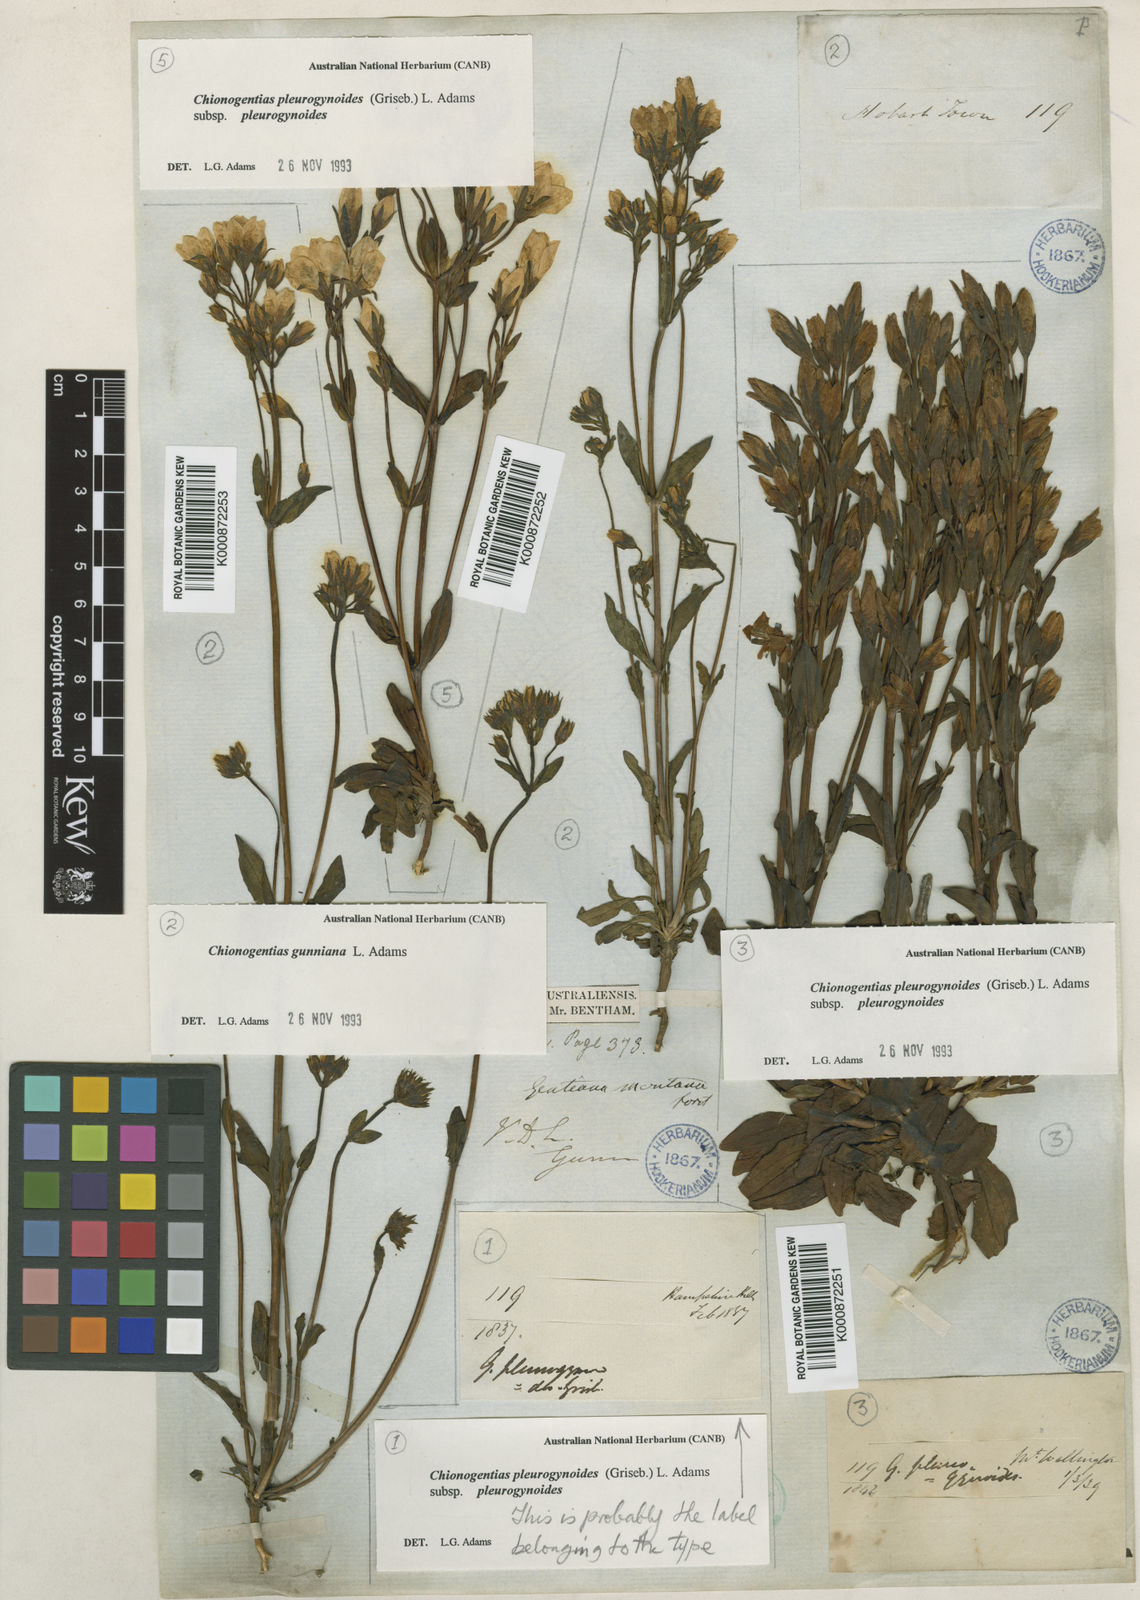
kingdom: Plantae
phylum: Tracheophyta
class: Magnoliopsida
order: Gentianales
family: Gentianaceae
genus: Gentianella
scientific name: Gentianella pleurogynoides
